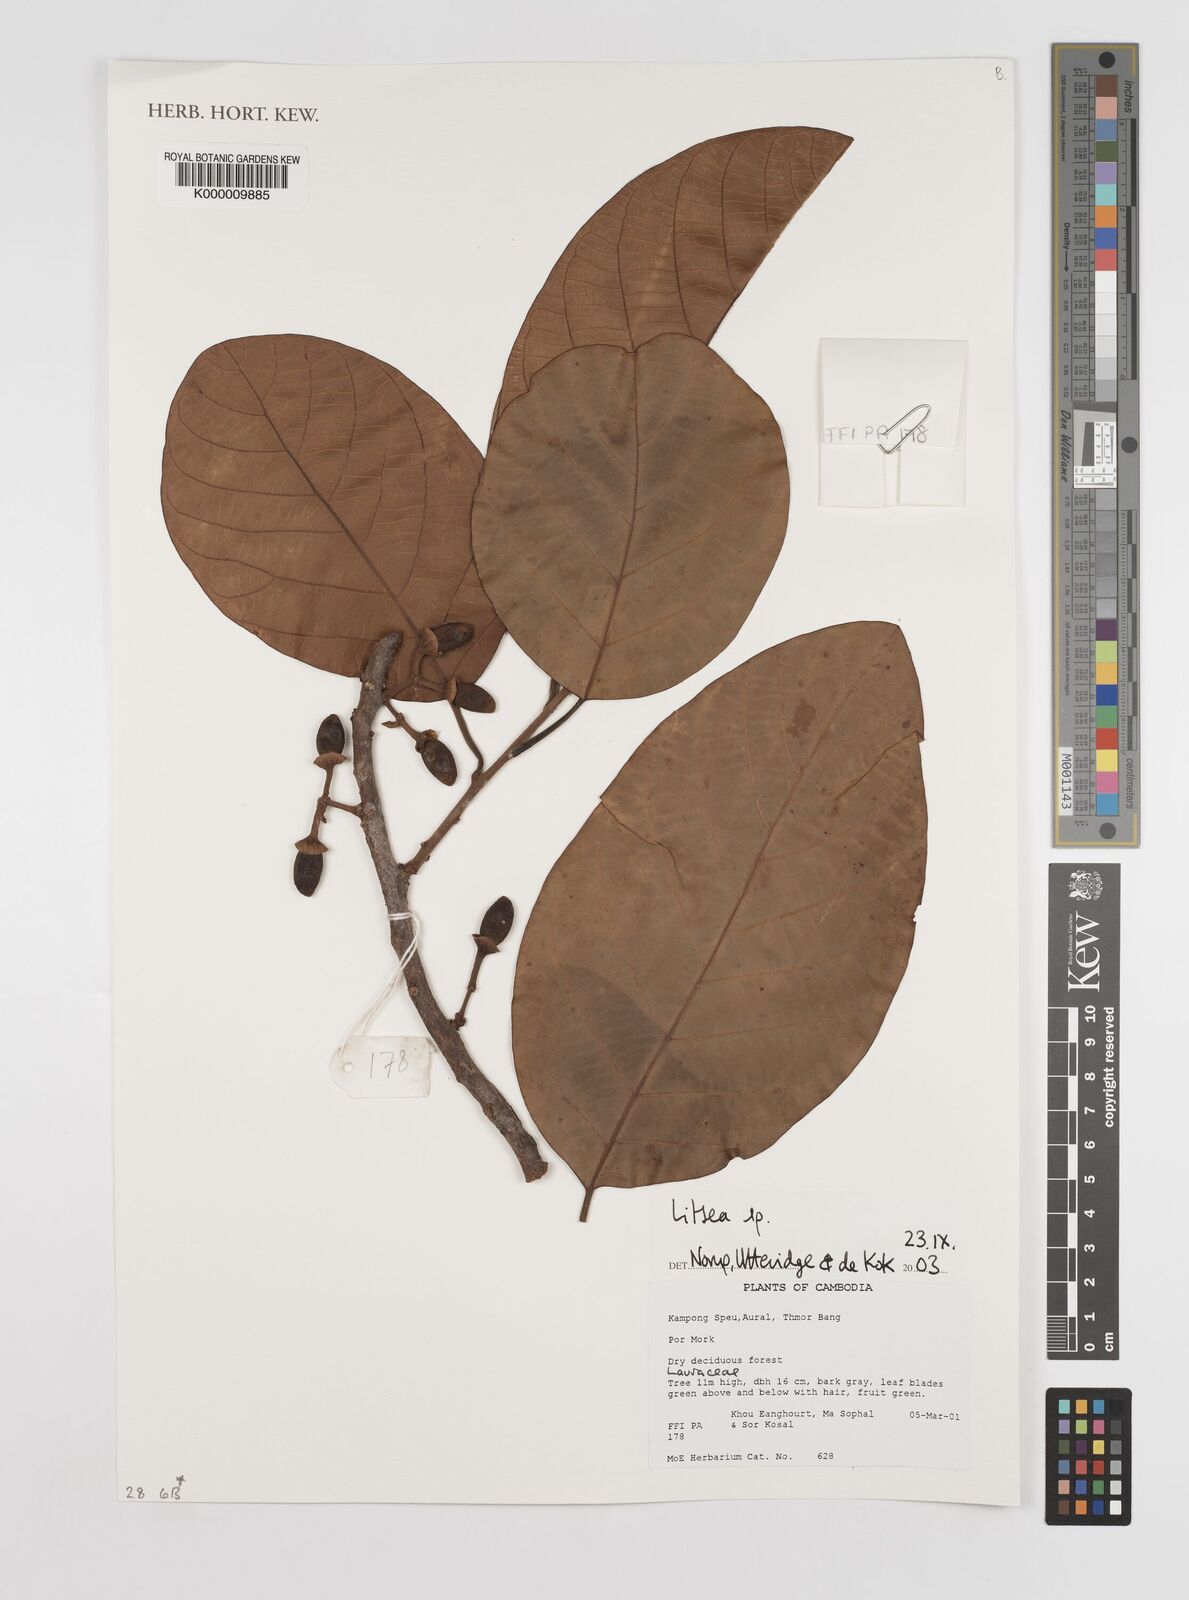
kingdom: Plantae
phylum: Tracheophyta
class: Magnoliopsida
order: Laurales
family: Lauraceae
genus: Litsea
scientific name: Litsea
